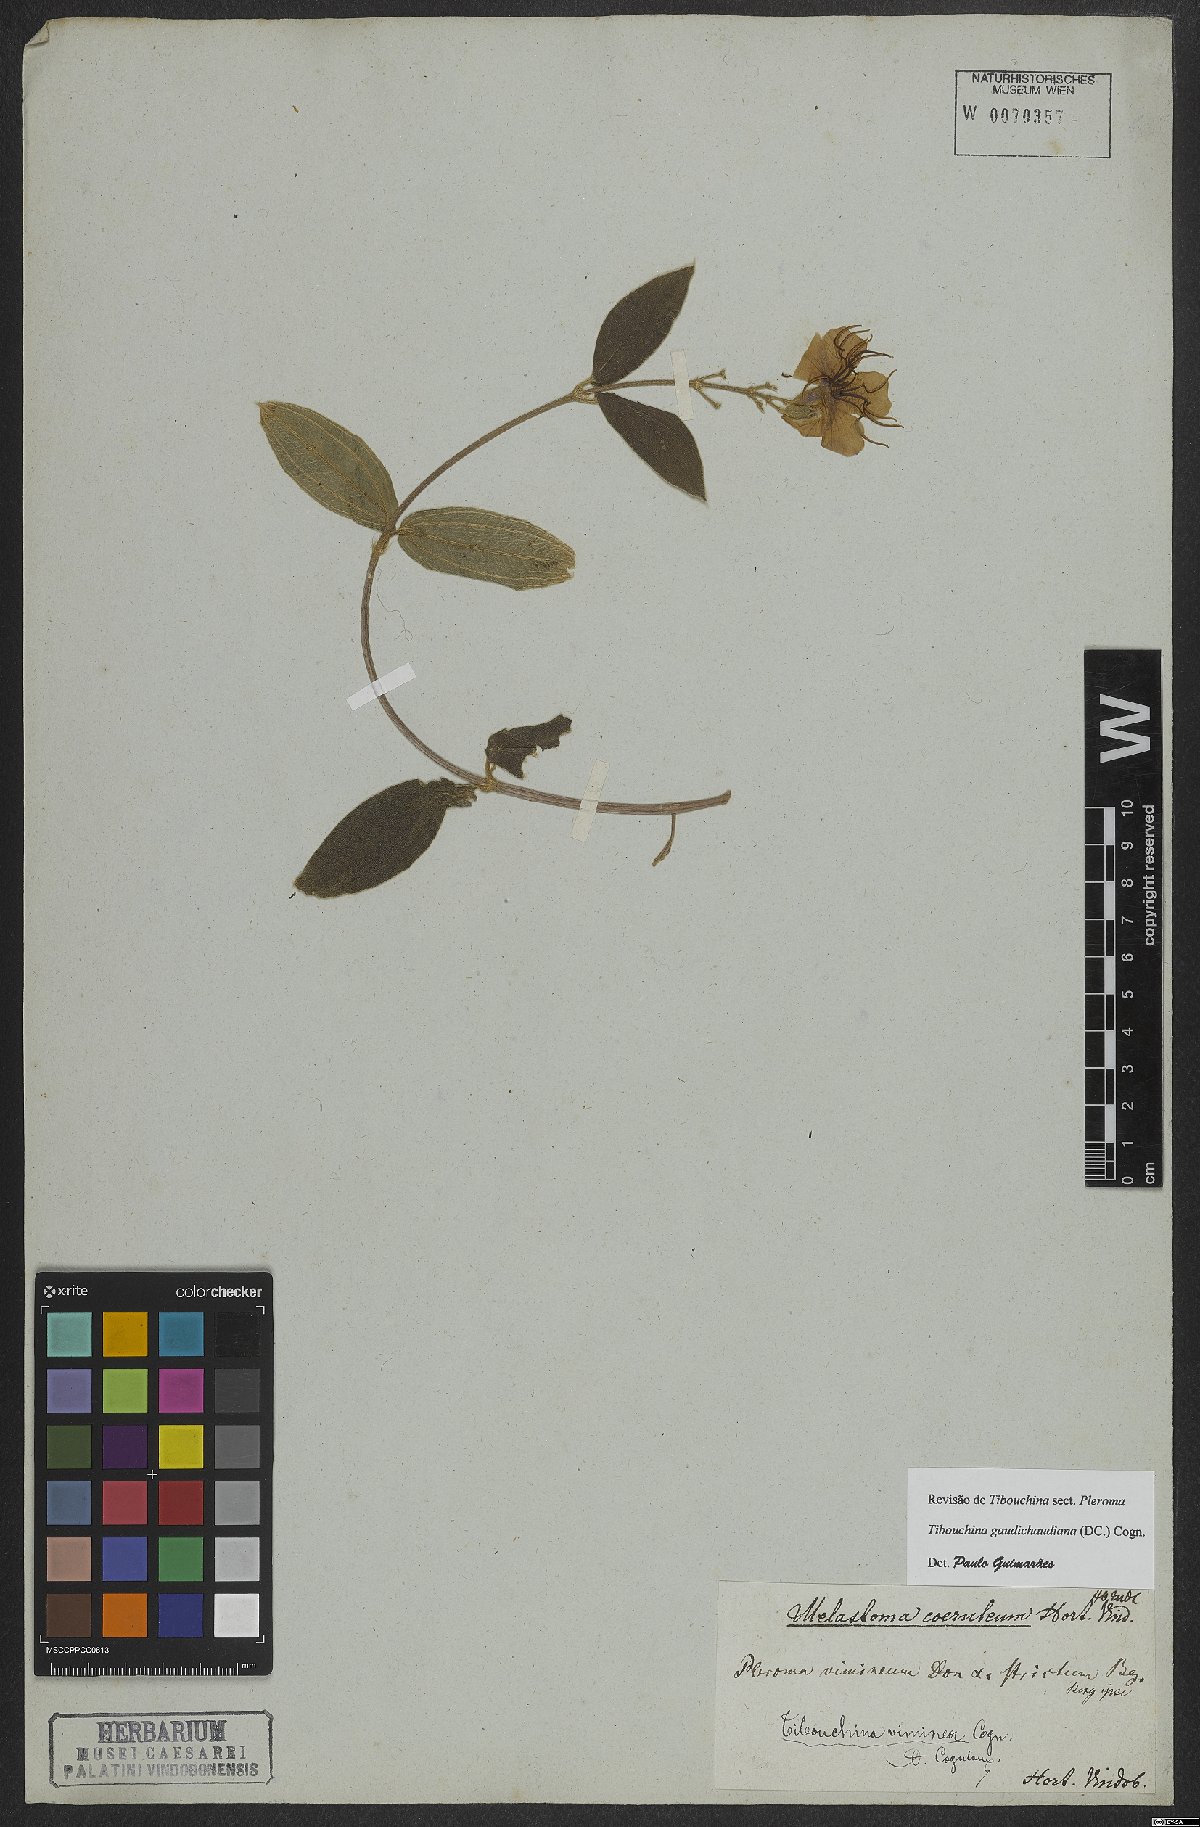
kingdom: Plantae
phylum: Tracheophyta
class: Magnoliopsida
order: Myrtales
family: Melastomataceae
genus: Pleroma
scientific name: Pleroma gaudichaudianum
